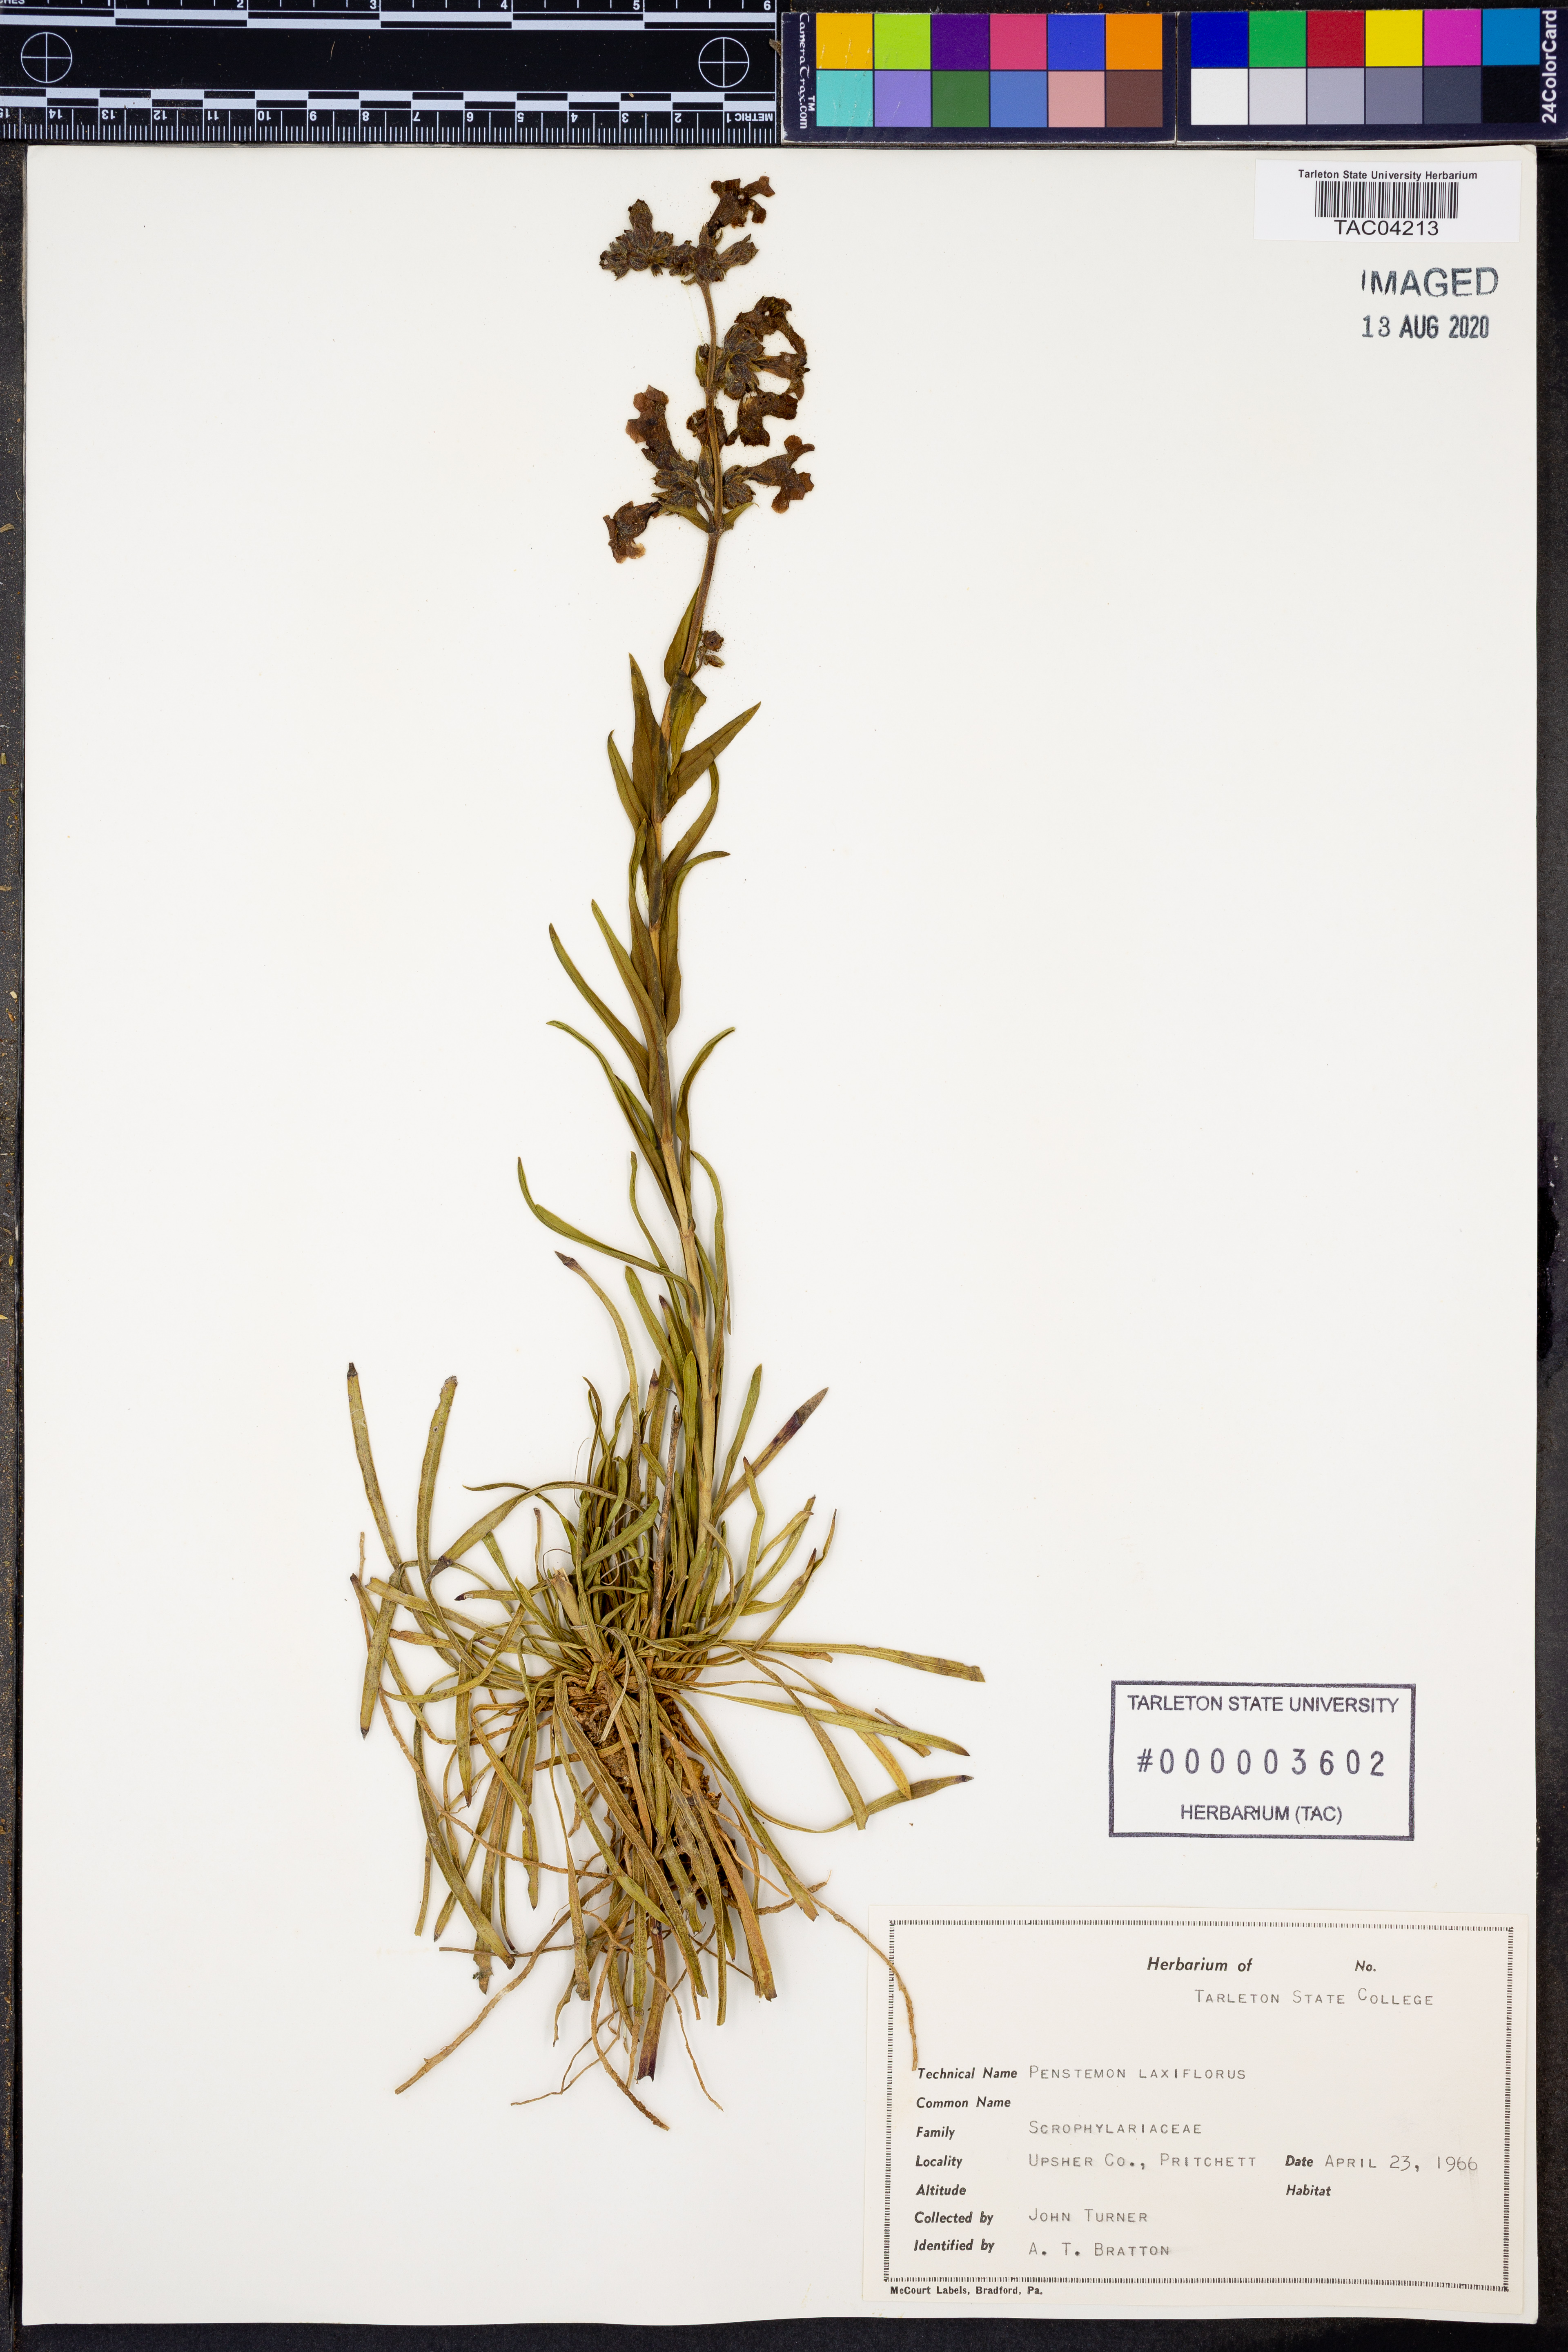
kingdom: Plantae
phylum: Tracheophyta
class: Magnoliopsida
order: Lamiales
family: Plantaginaceae
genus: Penstemon
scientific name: Penstemon laxiflorus
